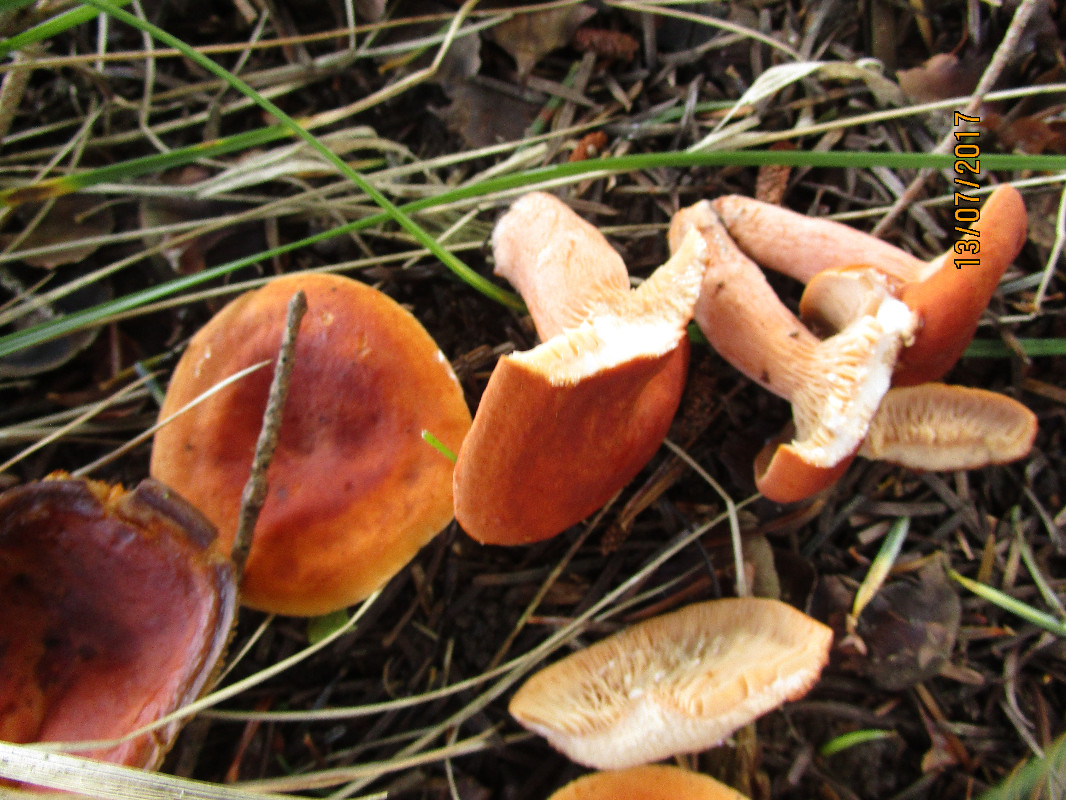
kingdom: Fungi
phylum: Basidiomycota
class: Agaricomycetes
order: Russulales
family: Russulaceae
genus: Lactarius
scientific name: Lactarius fulvissimus
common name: ræve-mælkehat
